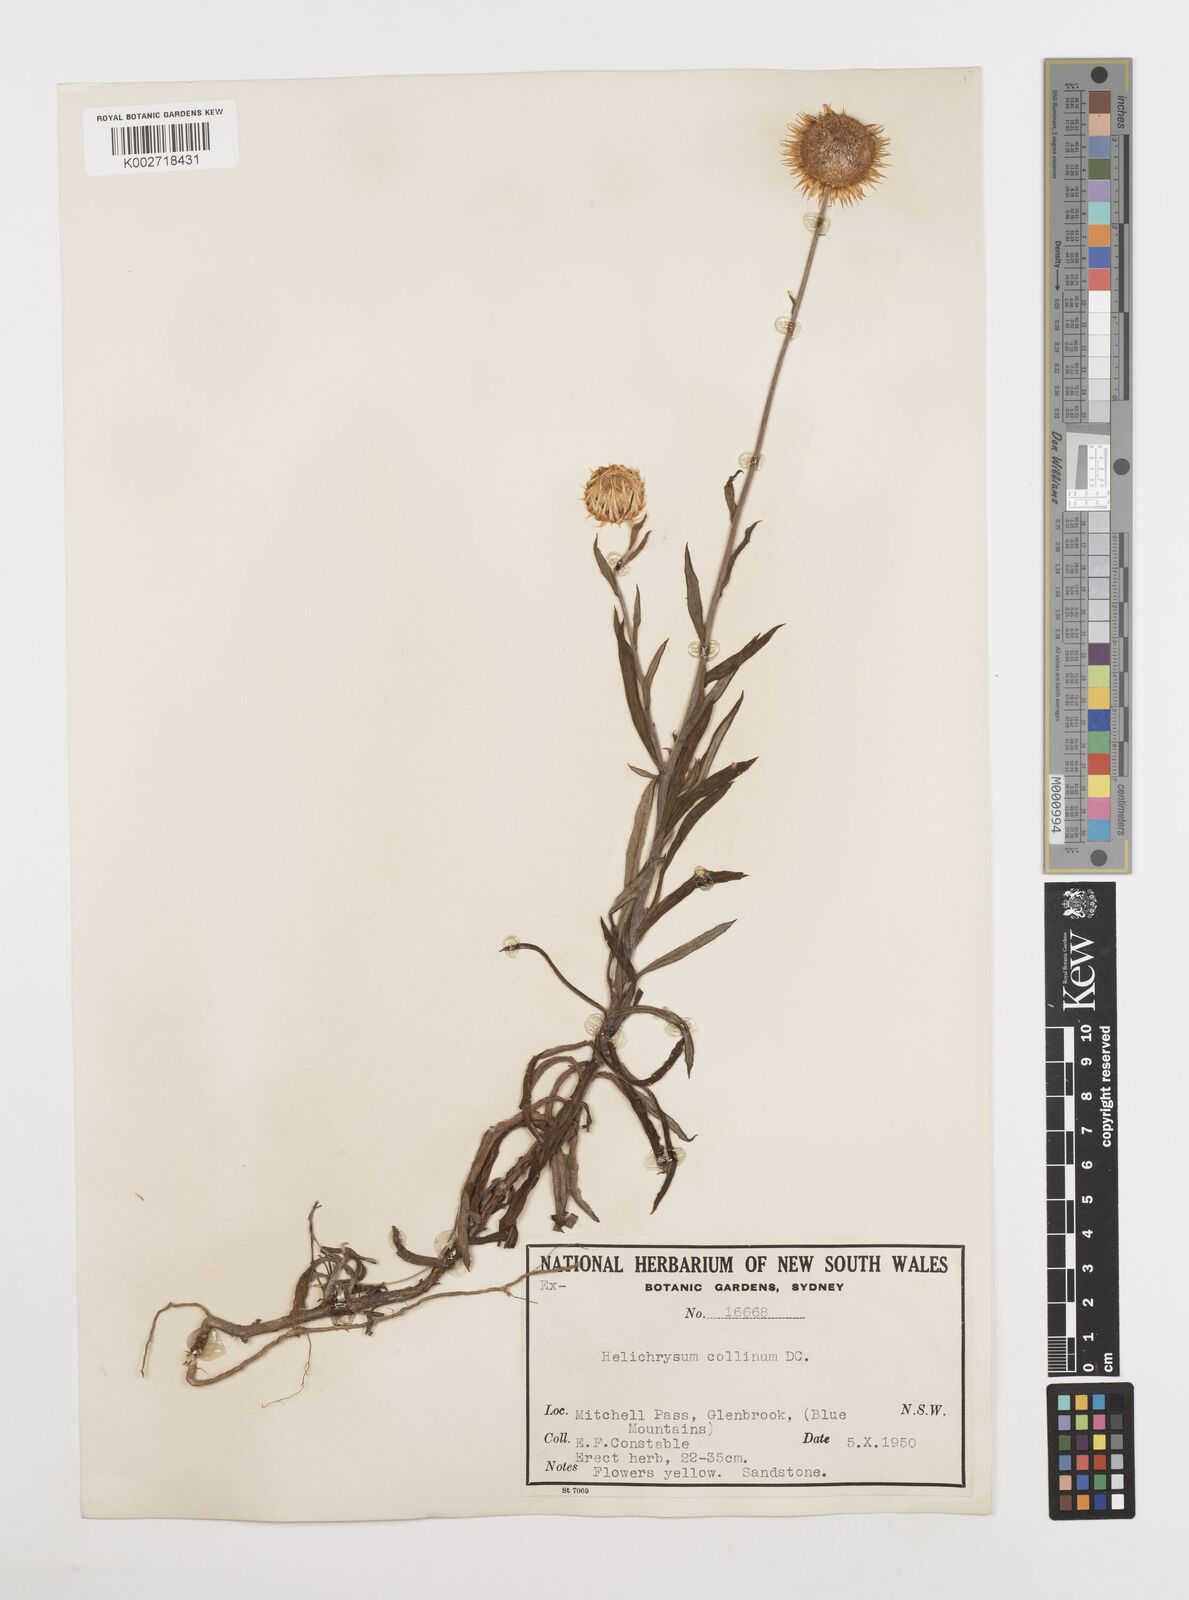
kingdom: Plantae
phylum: Tracheophyta
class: Magnoliopsida
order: Asterales
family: Asteraceae
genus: Coronidium
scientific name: Coronidium rupicola
